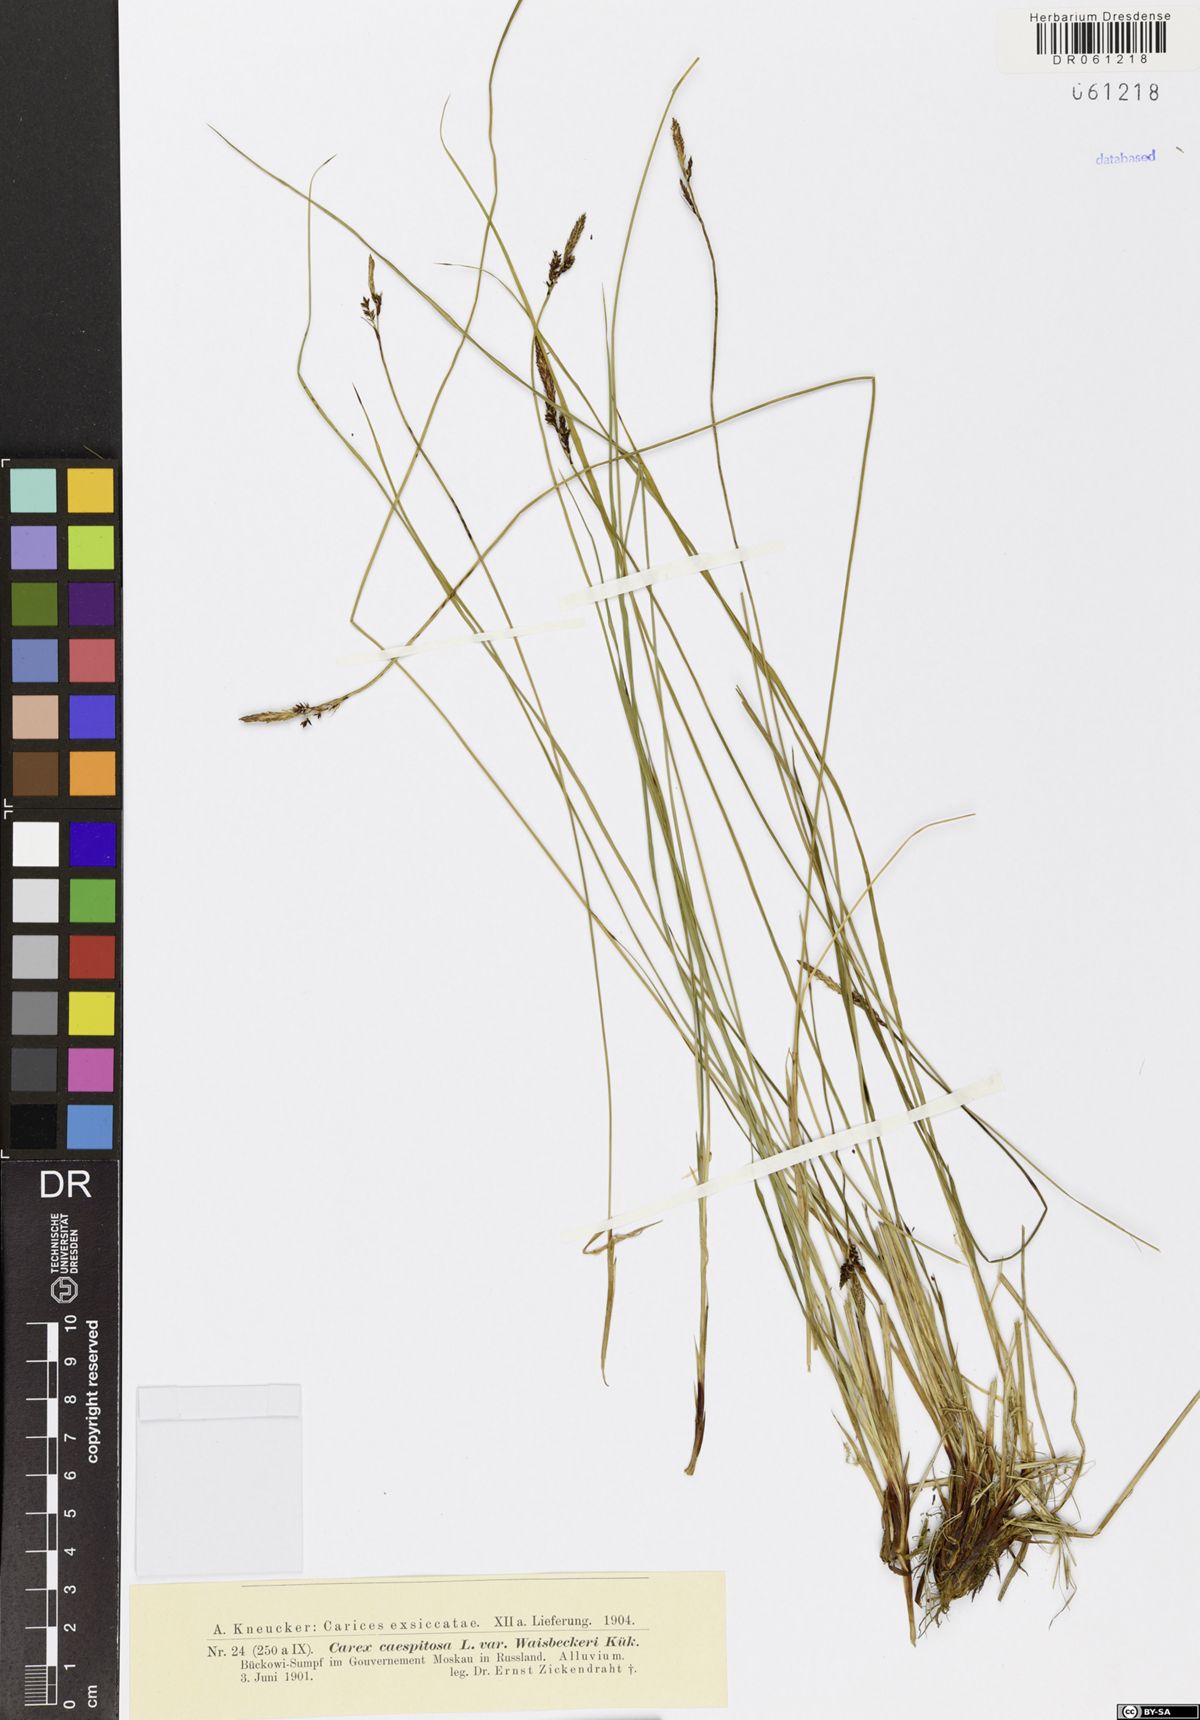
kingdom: Plantae
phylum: Tracheophyta
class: Liliopsida
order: Poales
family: Cyperaceae
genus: Carex
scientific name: Carex cespitosa
